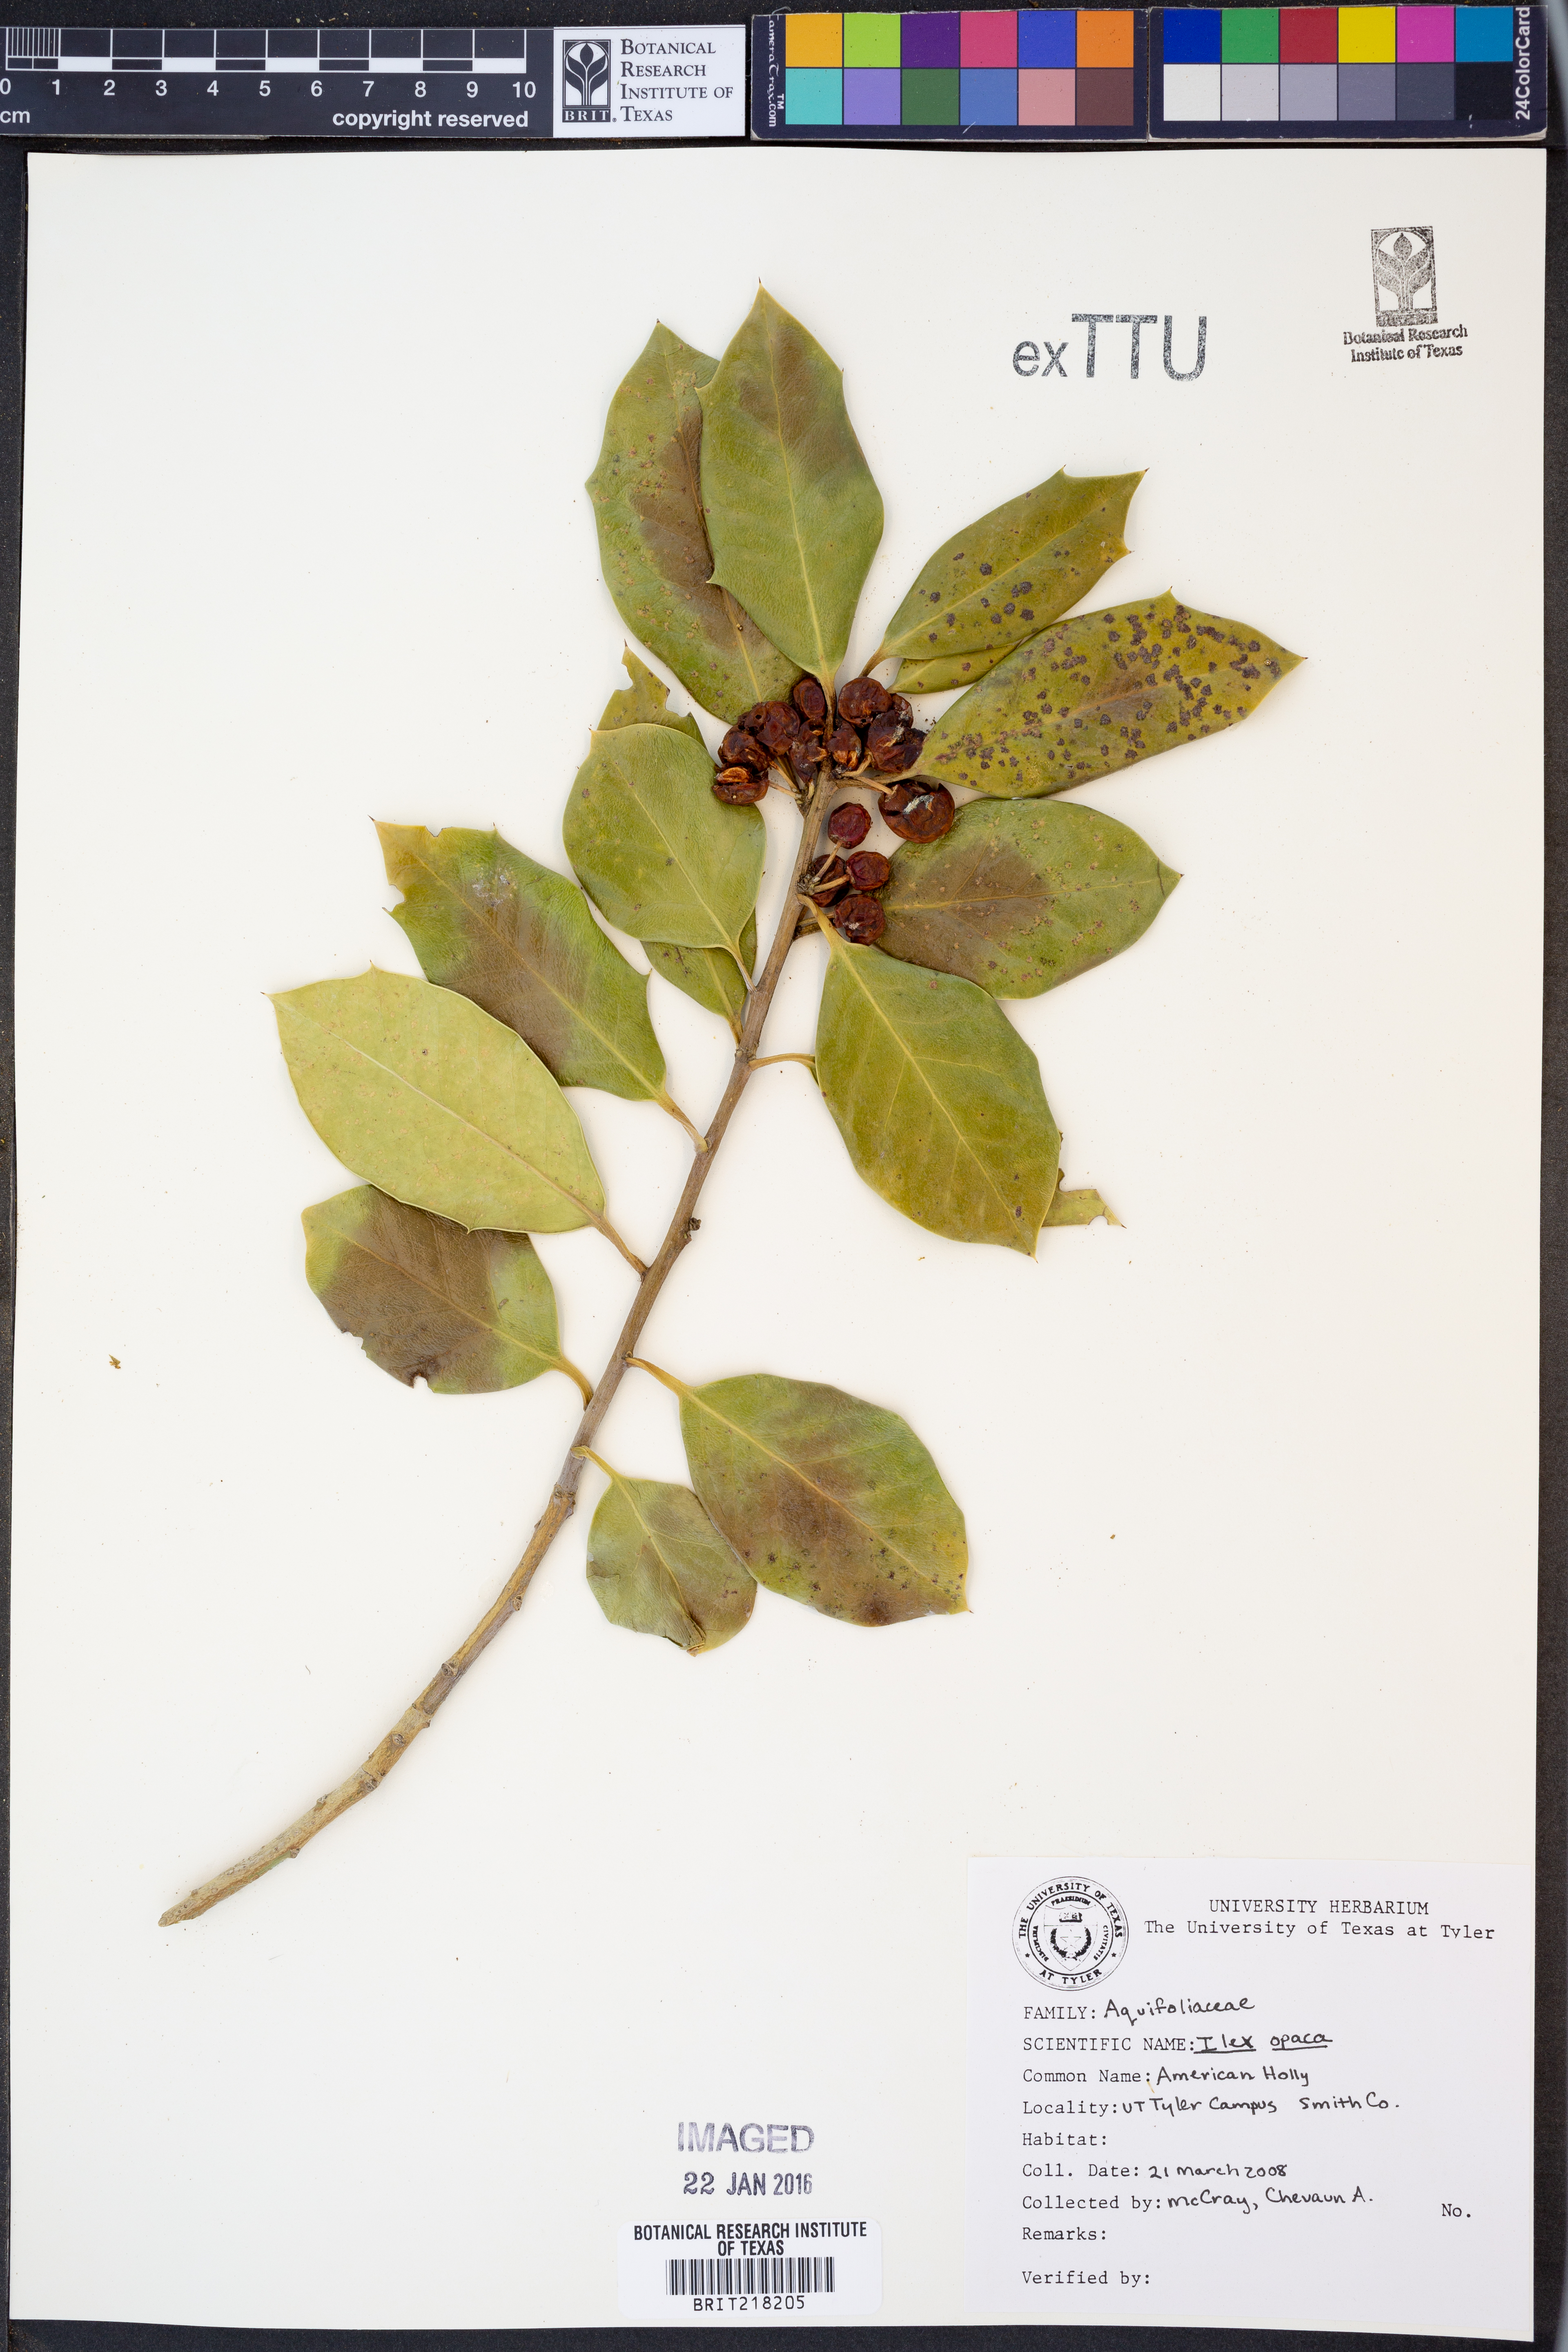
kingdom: Plantae
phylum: Tracheophyta
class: Magnoliopsida
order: Aquifoliales
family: Aquifoliaceae
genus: Ilex
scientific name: Ilex opaca
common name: American holly
